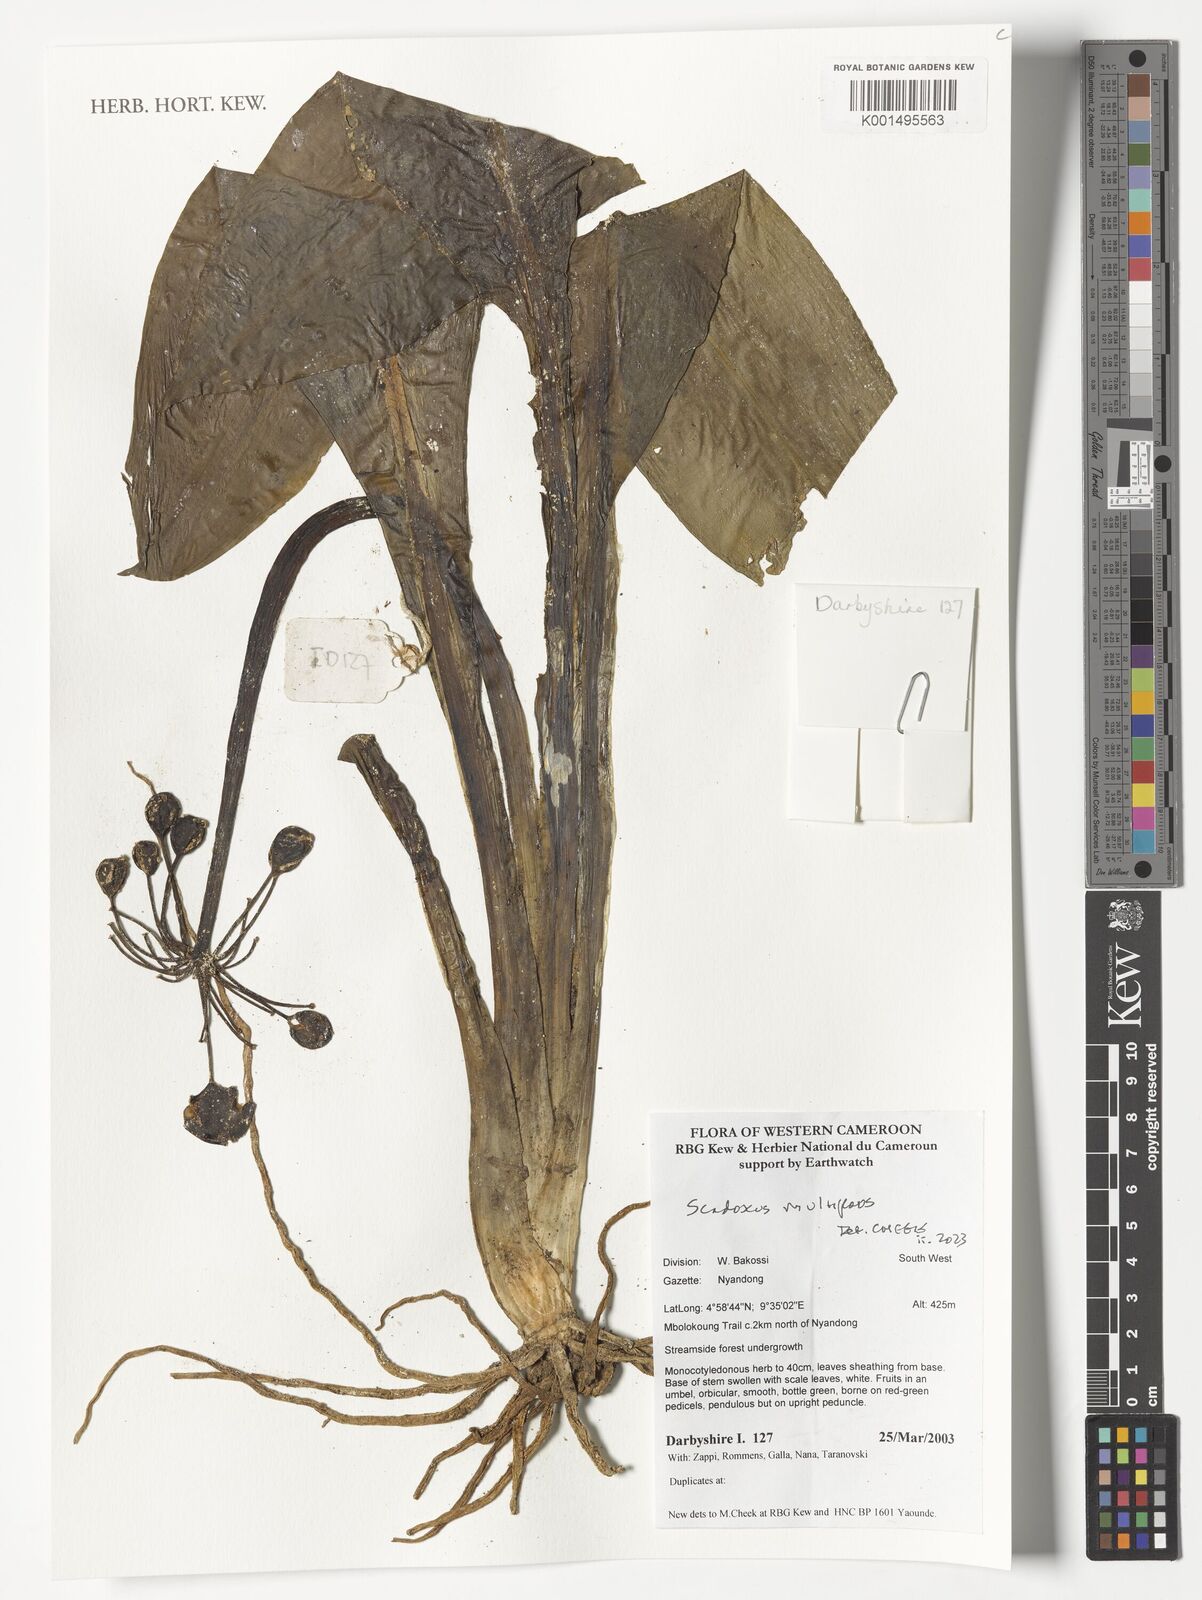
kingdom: Plantae
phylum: Tracheophyta
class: Liliopsida
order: Asparagales
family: Amaryllidaceae
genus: Scadoxus
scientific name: Scadoxus multiflorus
